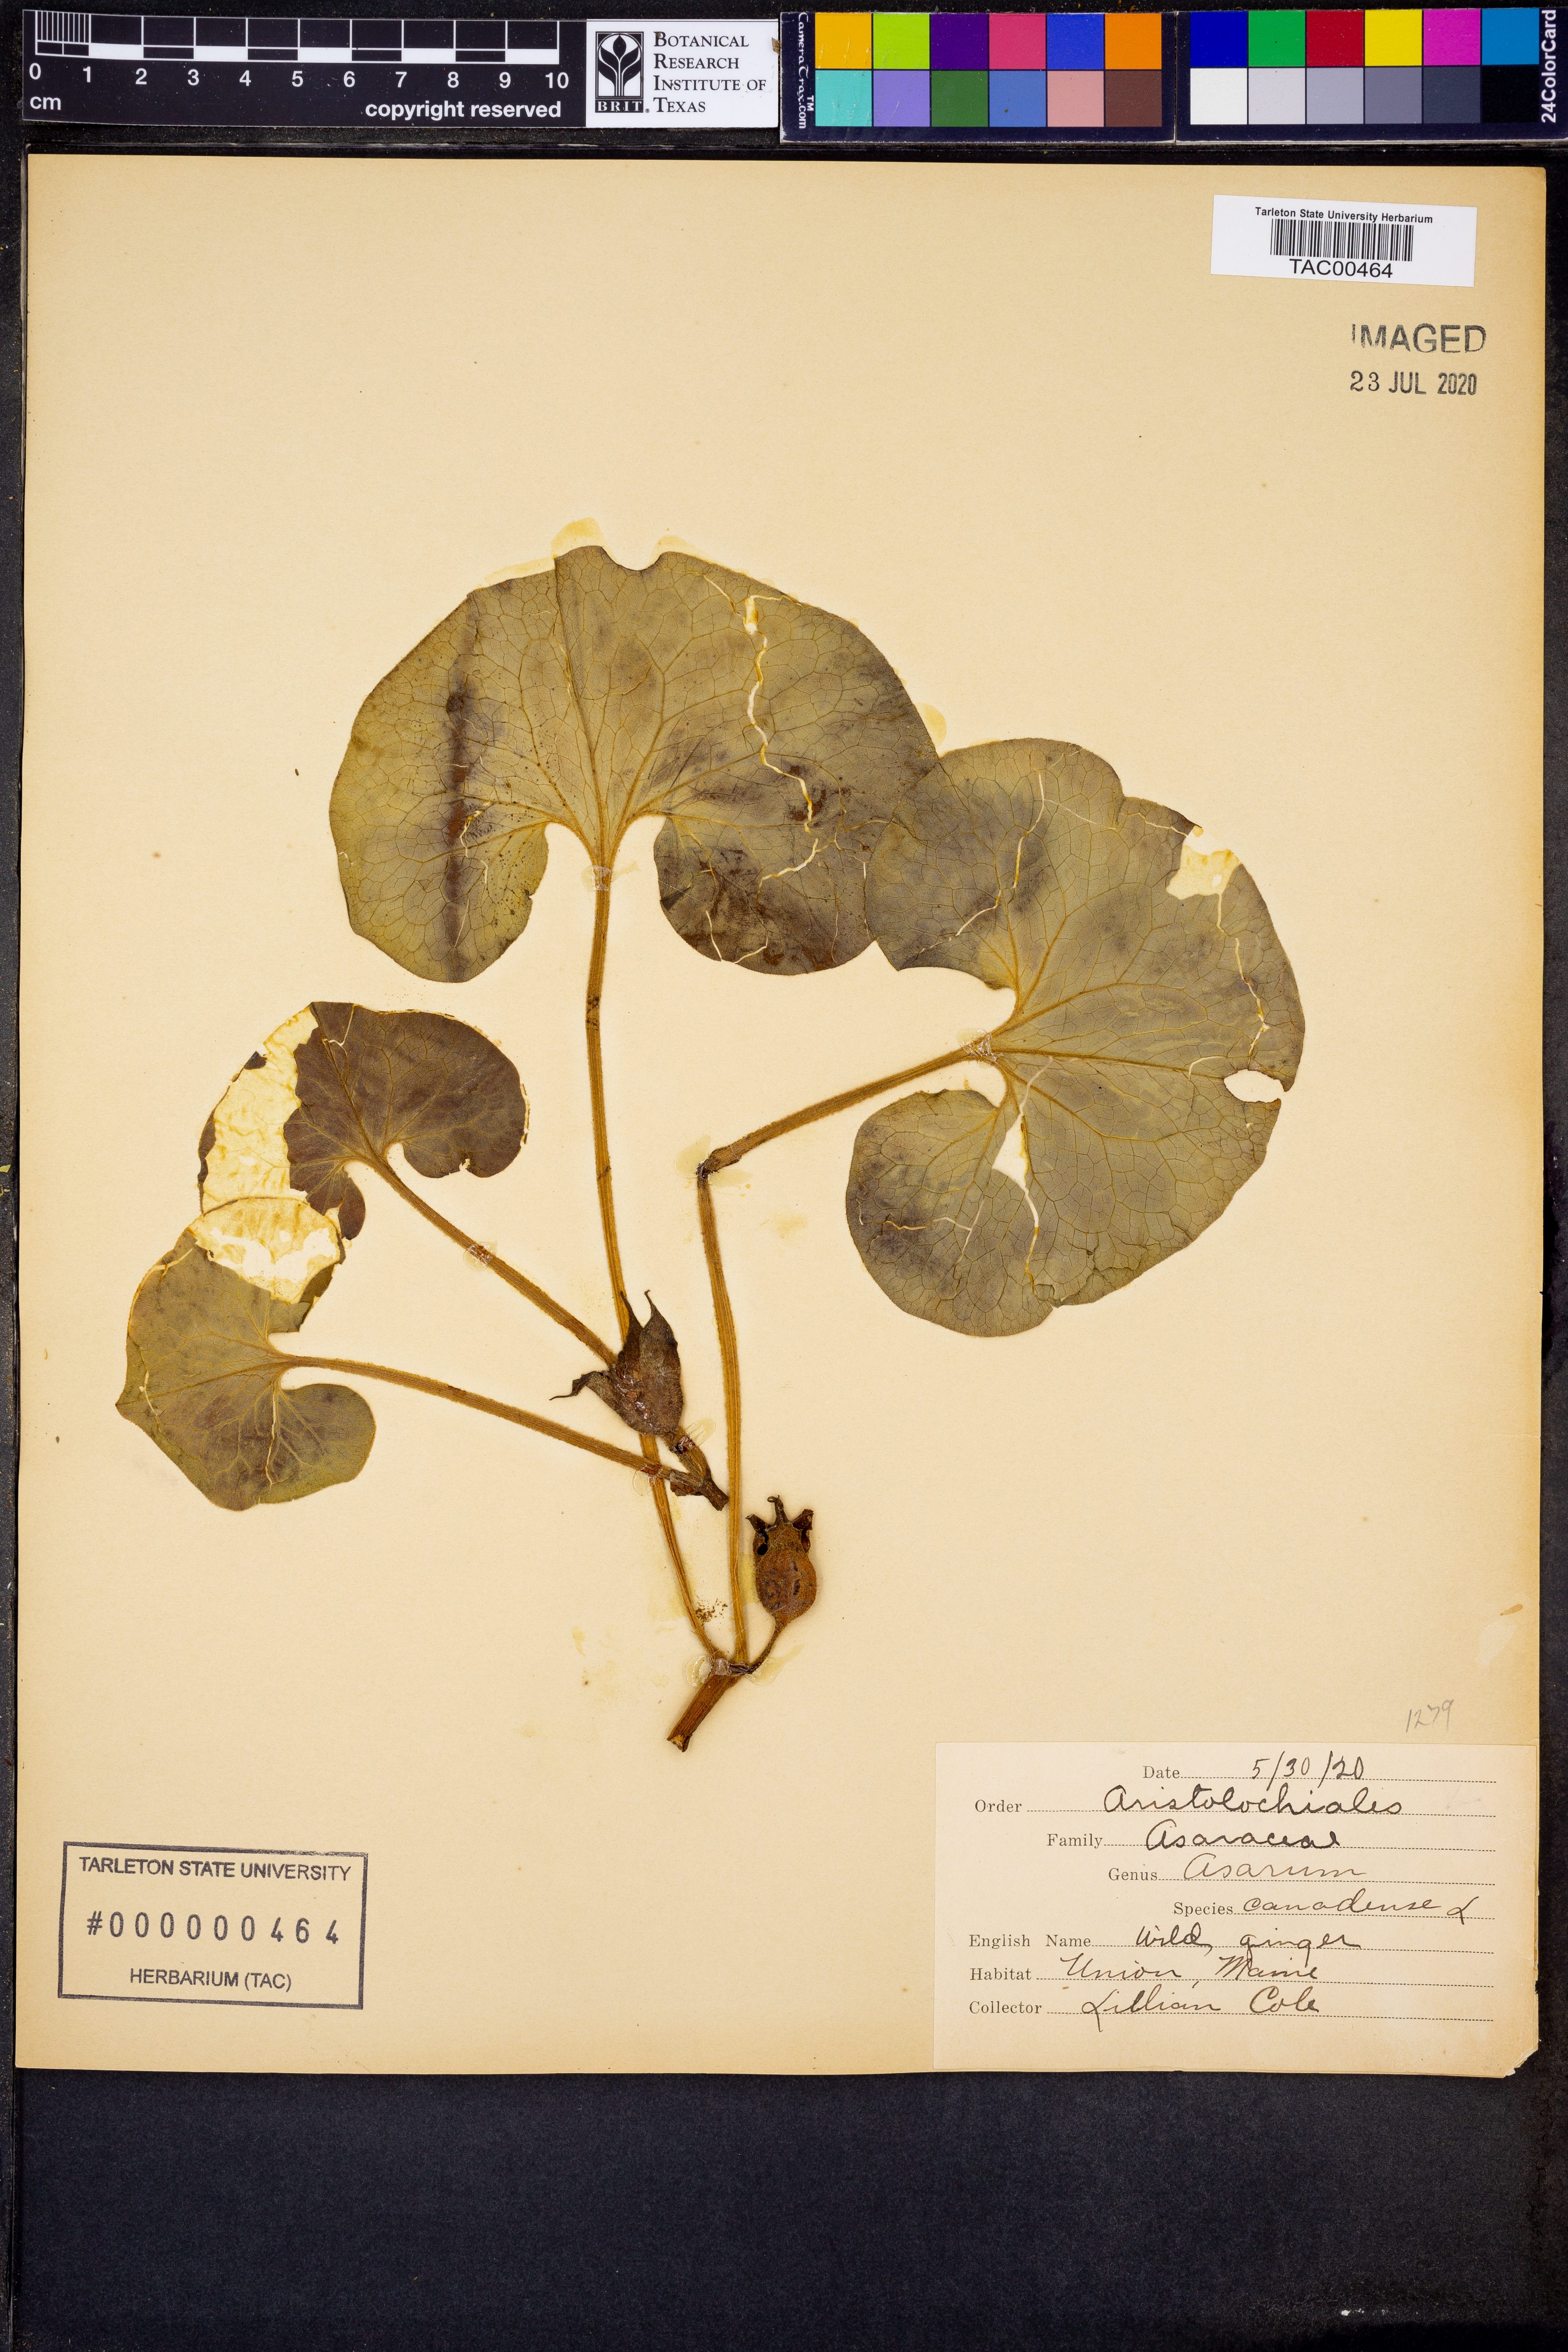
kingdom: Plantae
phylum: Tracheophyta
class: Magnoliopsida
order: Piperales
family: Aristolochiaceae
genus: Asarum
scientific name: Asarum canadense
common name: Wild ginger
